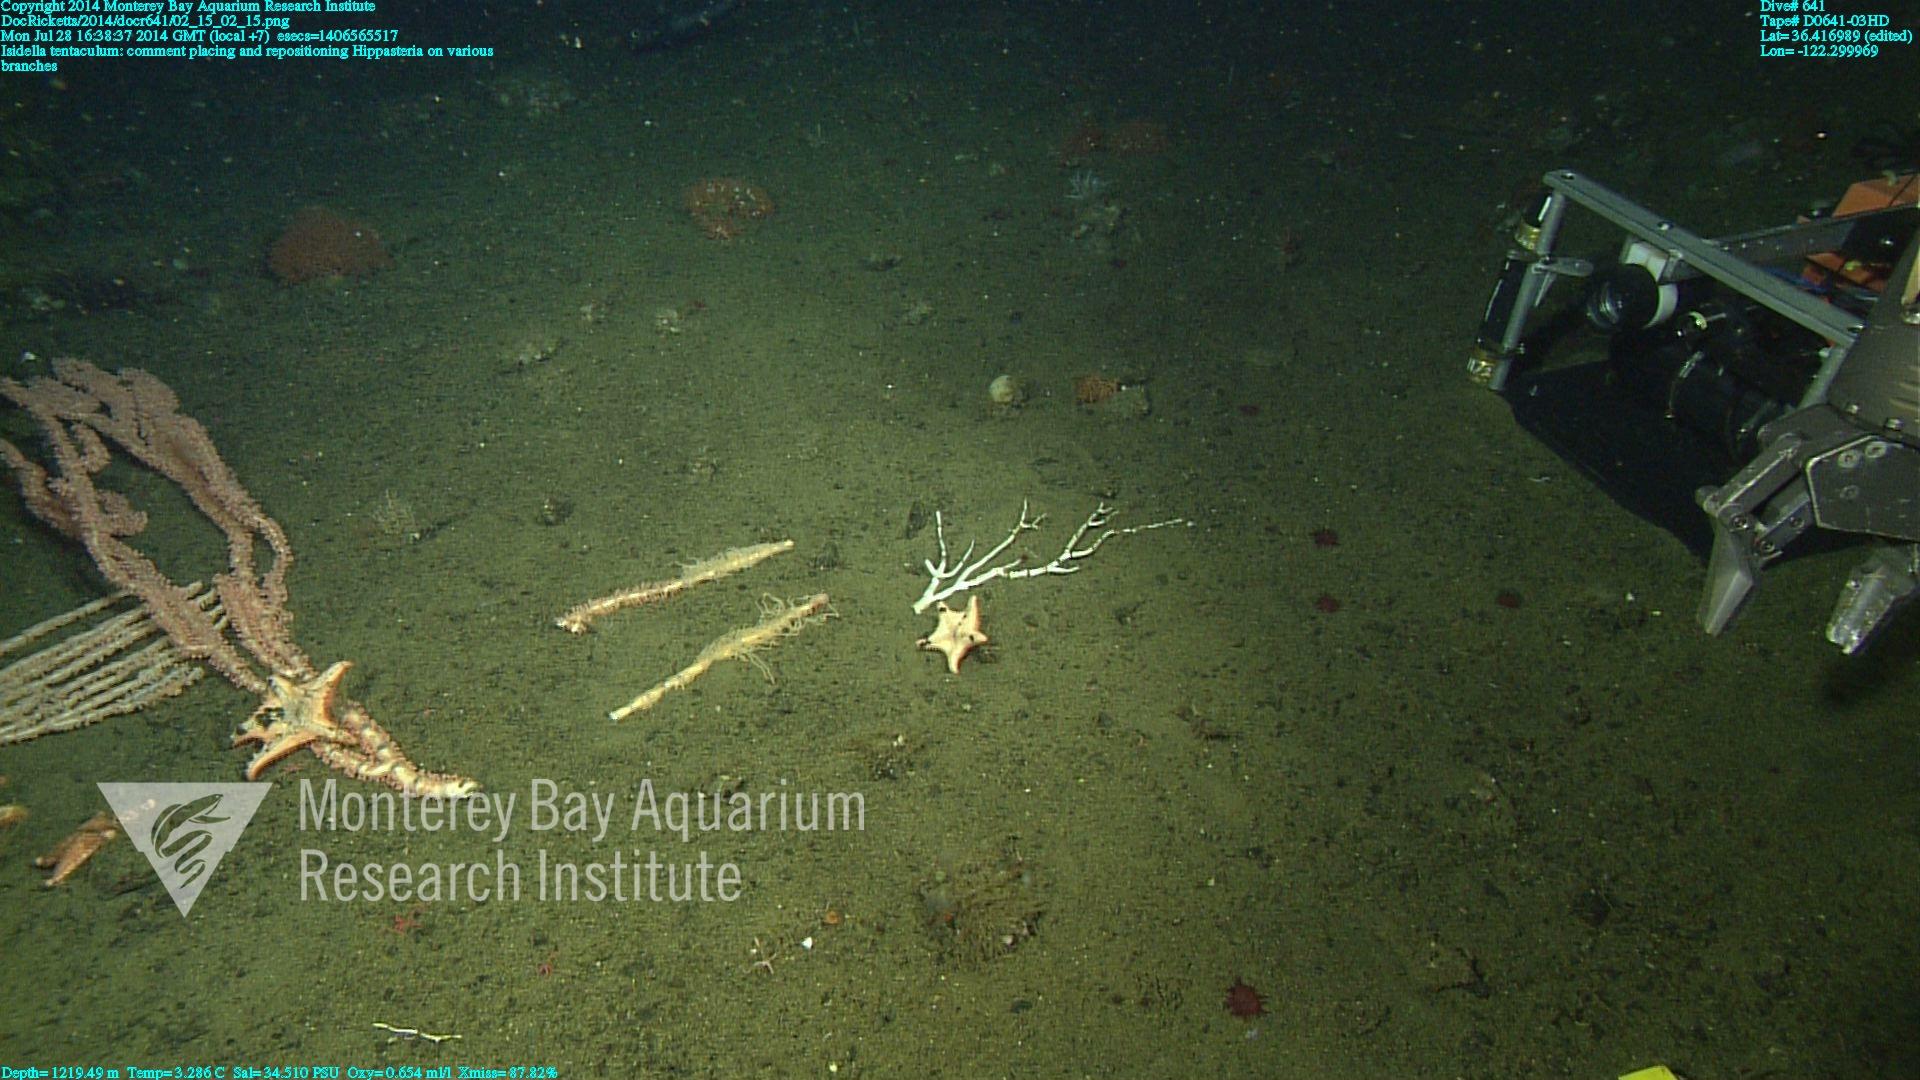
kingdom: Animalia
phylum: Cnidaria
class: Anthozoa
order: Scleralcyonacea
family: Keratoisididae
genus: Isidella
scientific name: Isidella tentaculum
